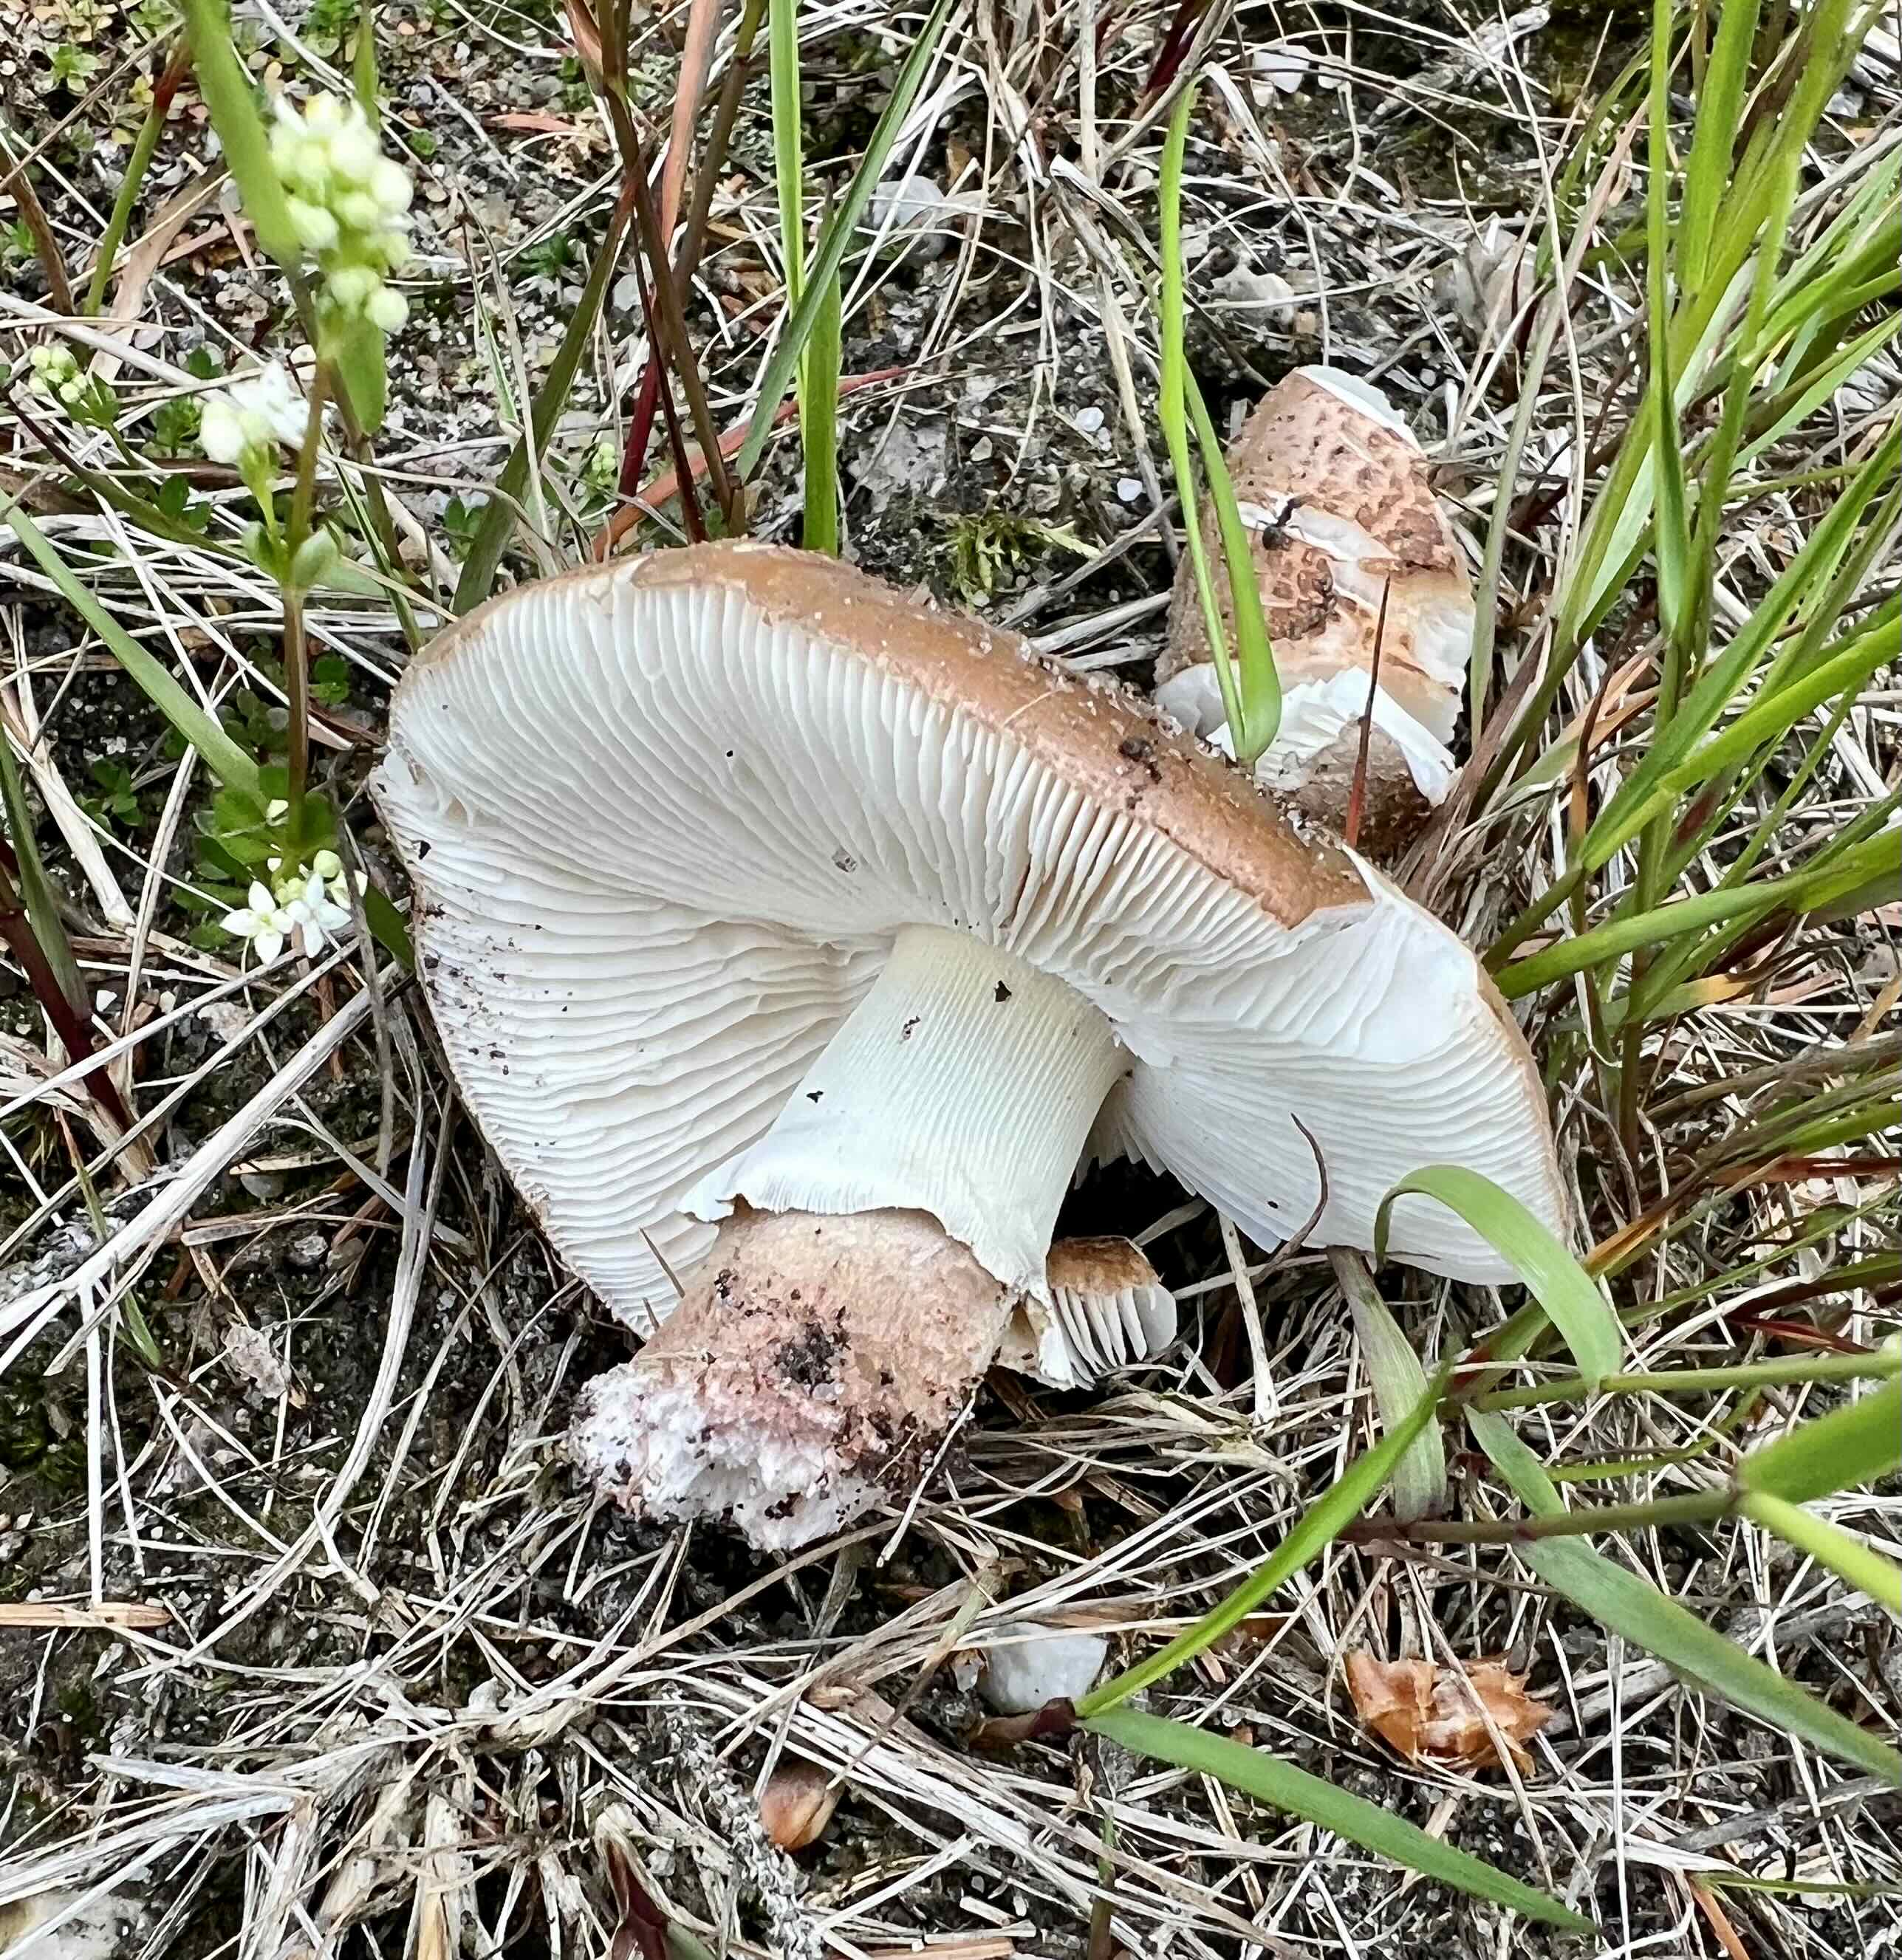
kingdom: Fungi
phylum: Basidiomycota
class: Agaricomycetes
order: Agaricales
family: Amanitaceae
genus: Amanita
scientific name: Amanita rubescens
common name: rødmende fluesvamp
